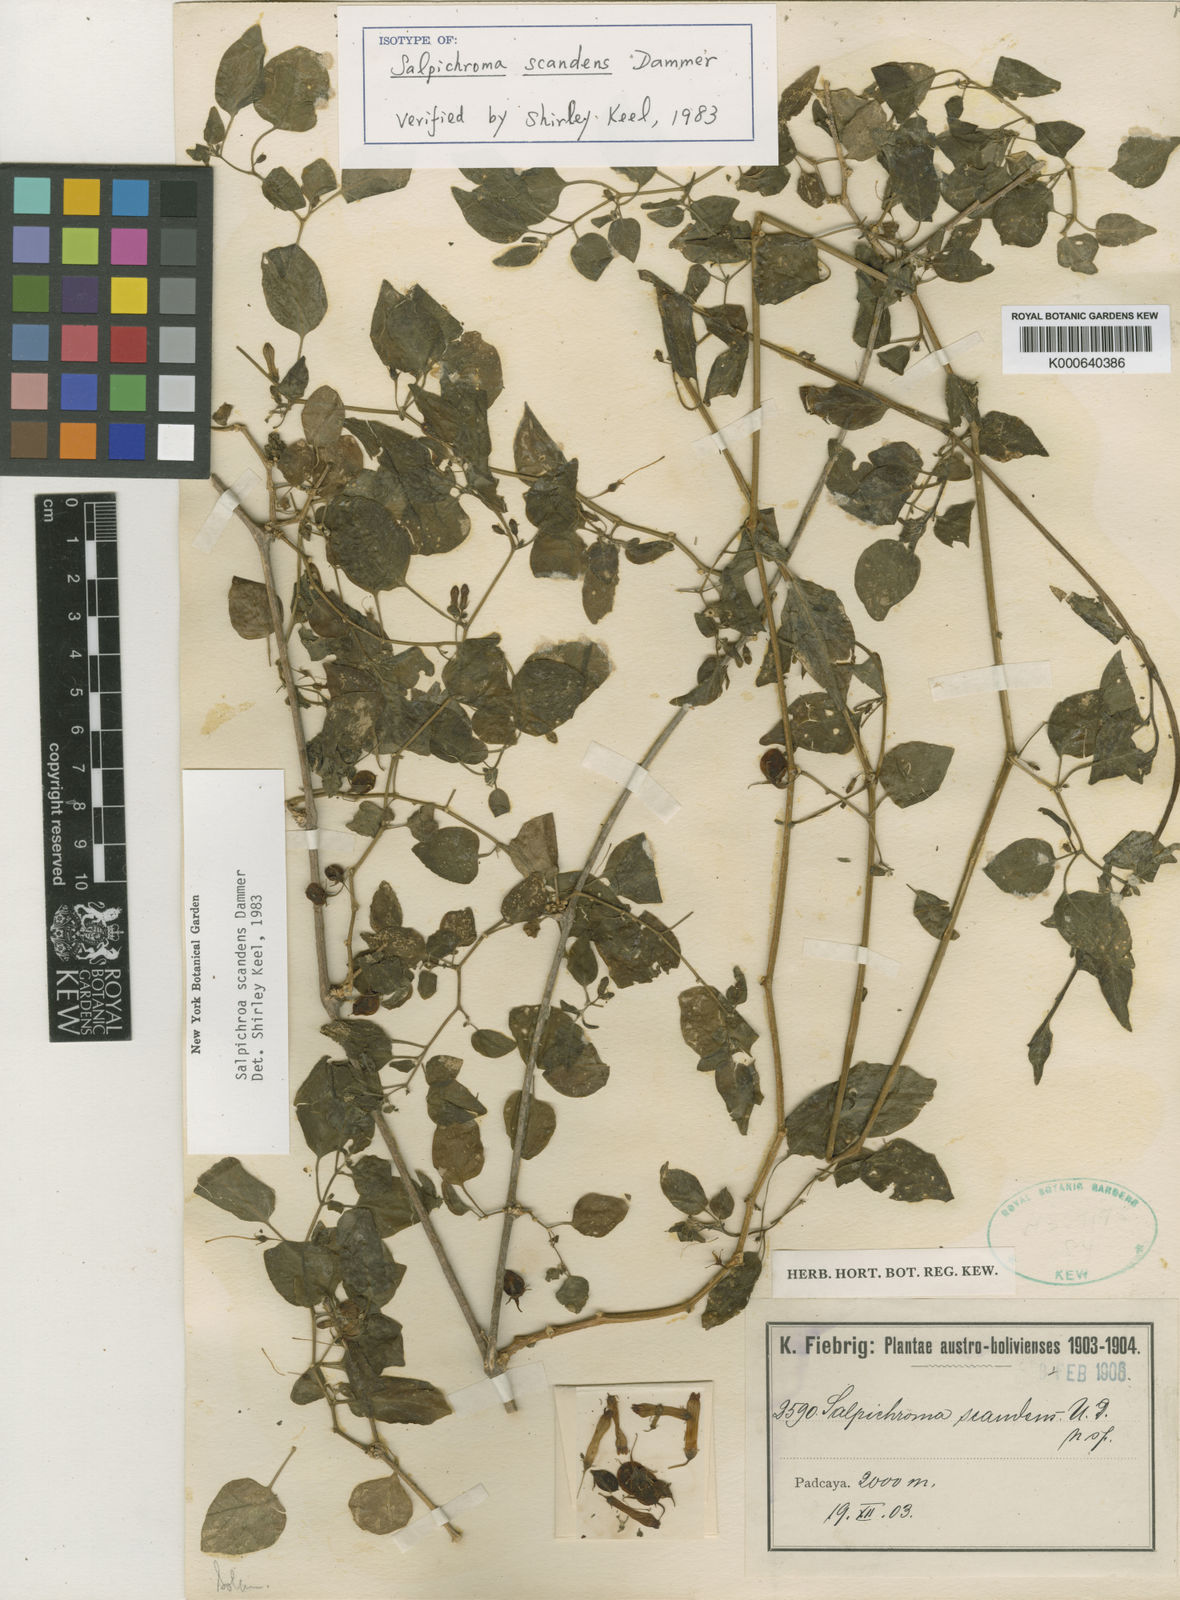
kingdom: Plantae
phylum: Tracheophyta
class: Magnoliopsida
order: Solanales
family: Solanaceae
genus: Salpichroa
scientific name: Salpichroa scandens
